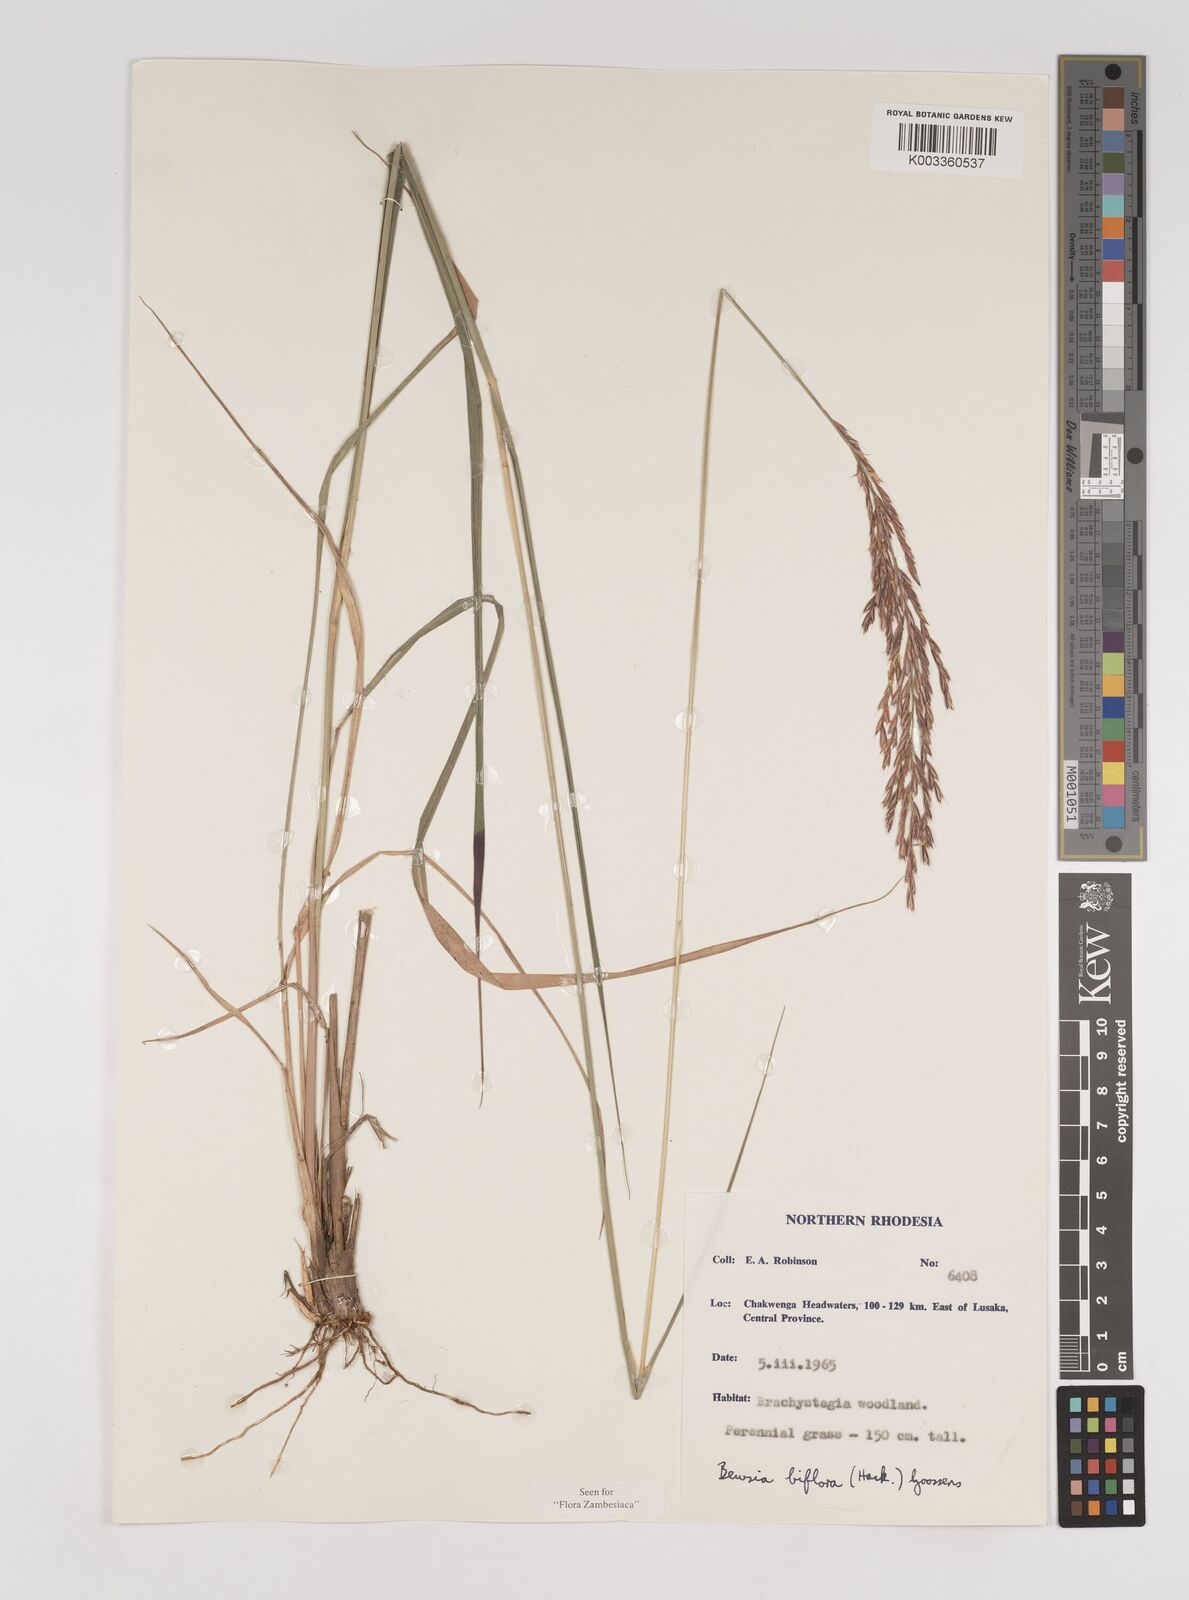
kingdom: Plantae
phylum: Tracheophyta
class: Liliopsida
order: Poales
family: Poaceae
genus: Bewsia
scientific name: Bewsia biflora
